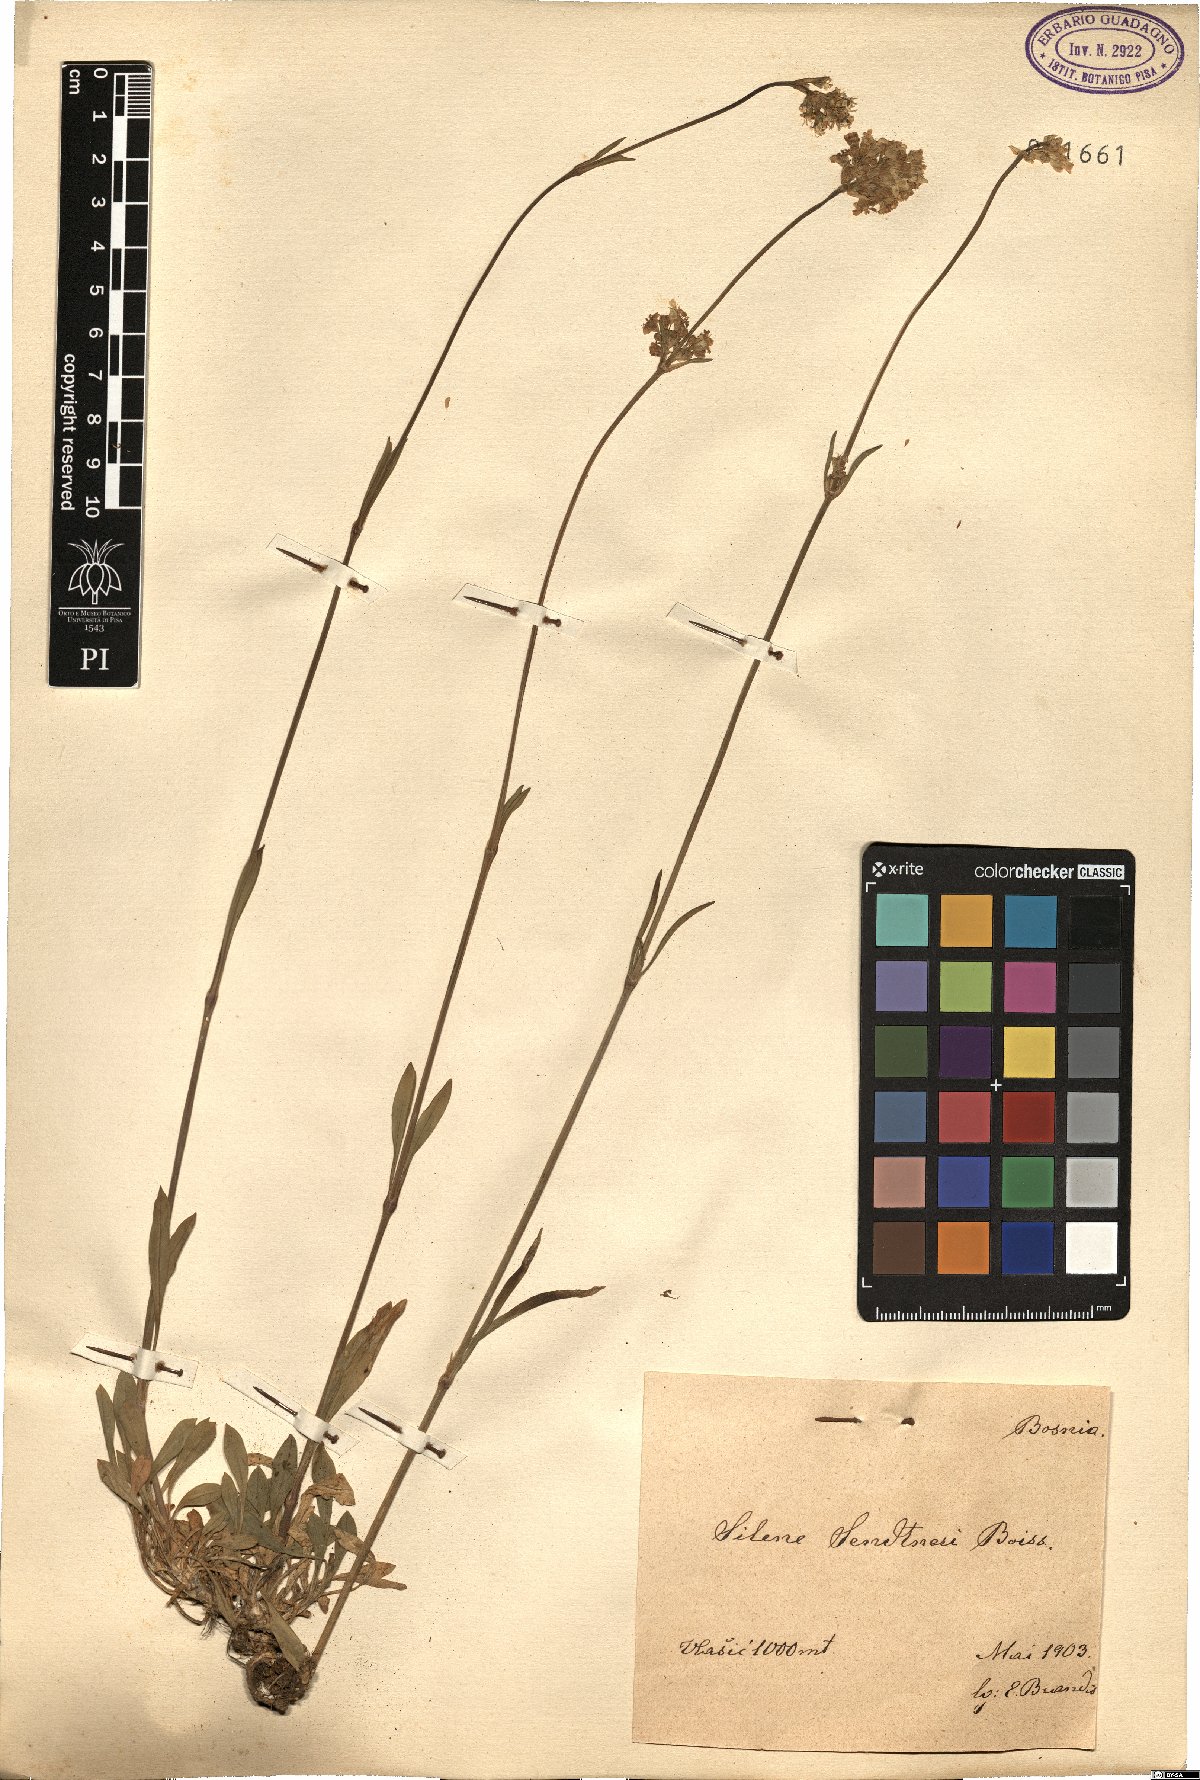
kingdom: Plantae
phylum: Tracheophyta
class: Magnoliopsida
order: Caryophyllales
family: Caryophyllaceae
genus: Silene
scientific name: Silene sendtneri
